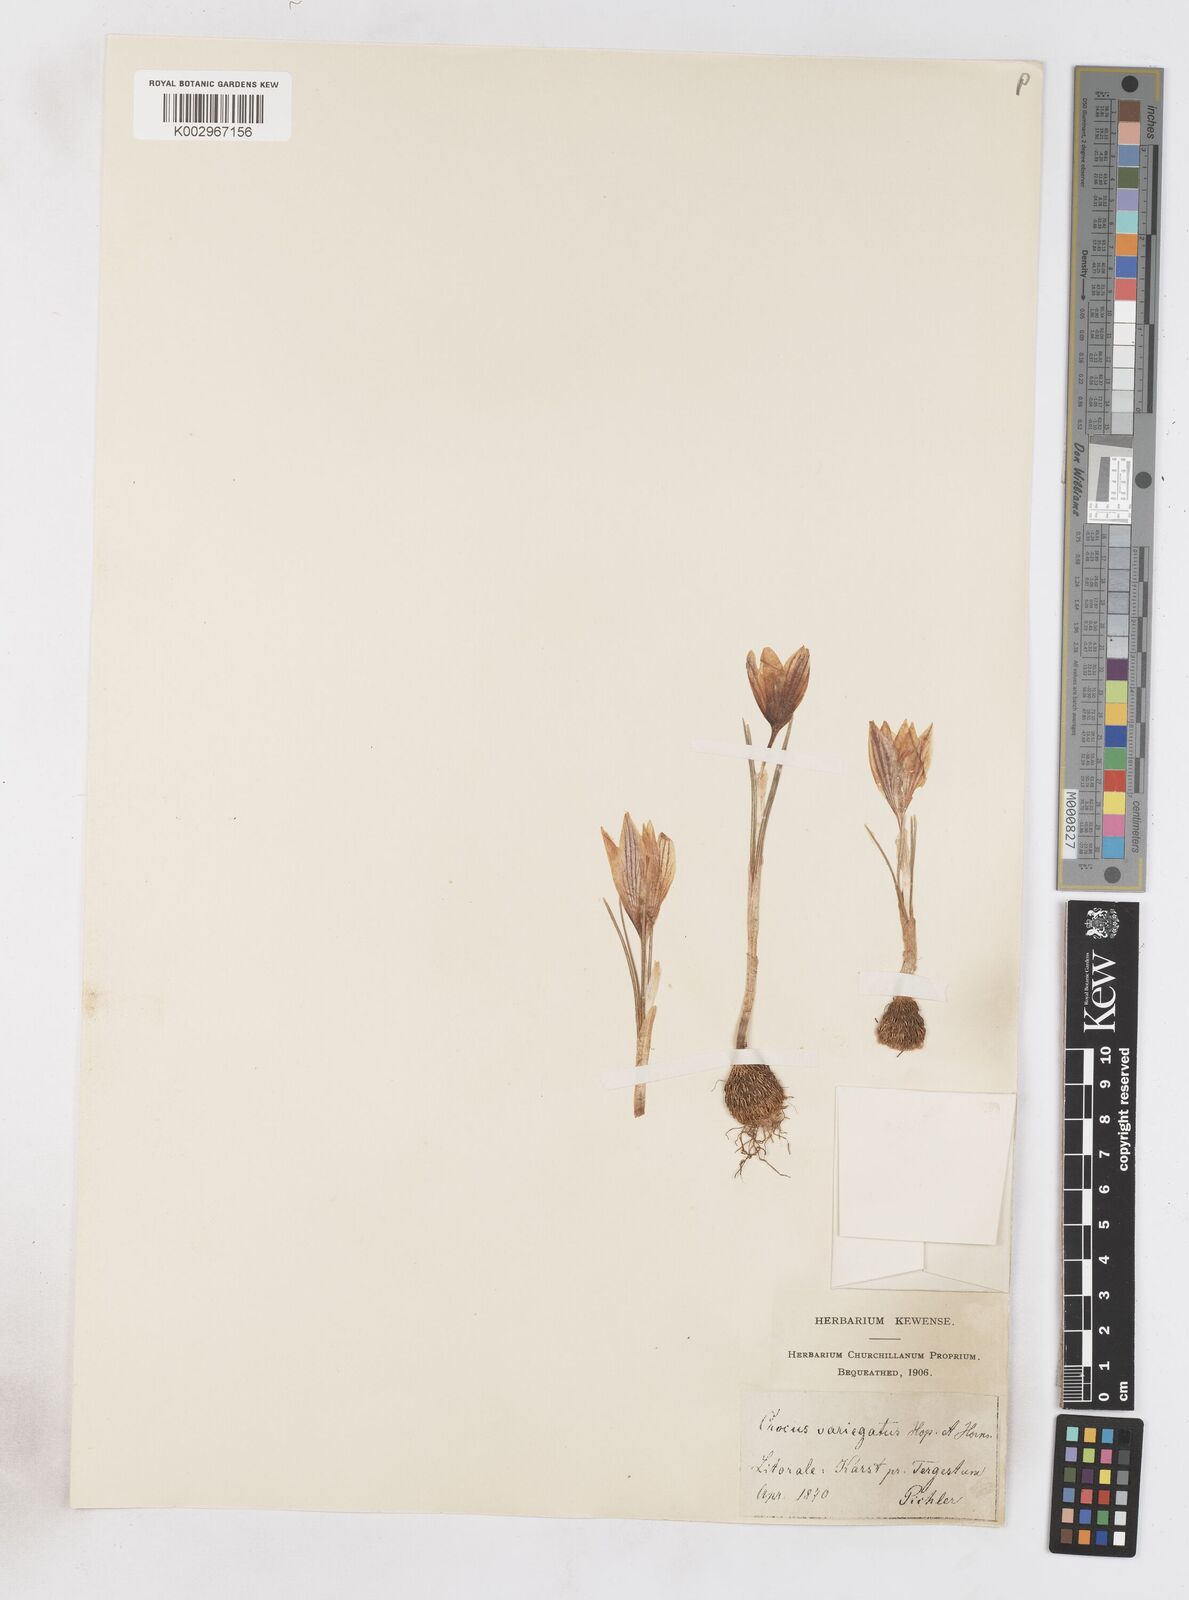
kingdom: Plantae
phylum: Tracheophyta
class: Liliopsida
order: Asparagales
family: Iridaceae
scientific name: Iridaceae
